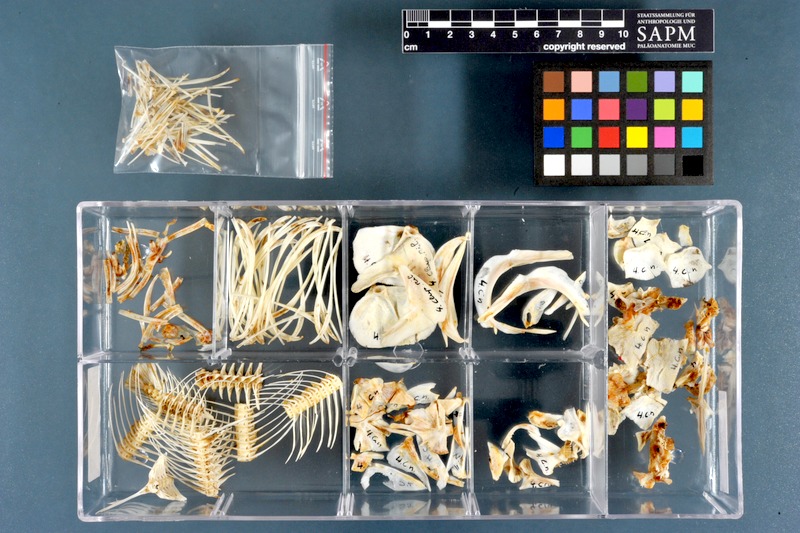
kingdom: Animalia
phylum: Chordata
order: Osteoglossiformes
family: Arapaimidae
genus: Heterotis
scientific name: Heterotis niloticus
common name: African bonytongue
